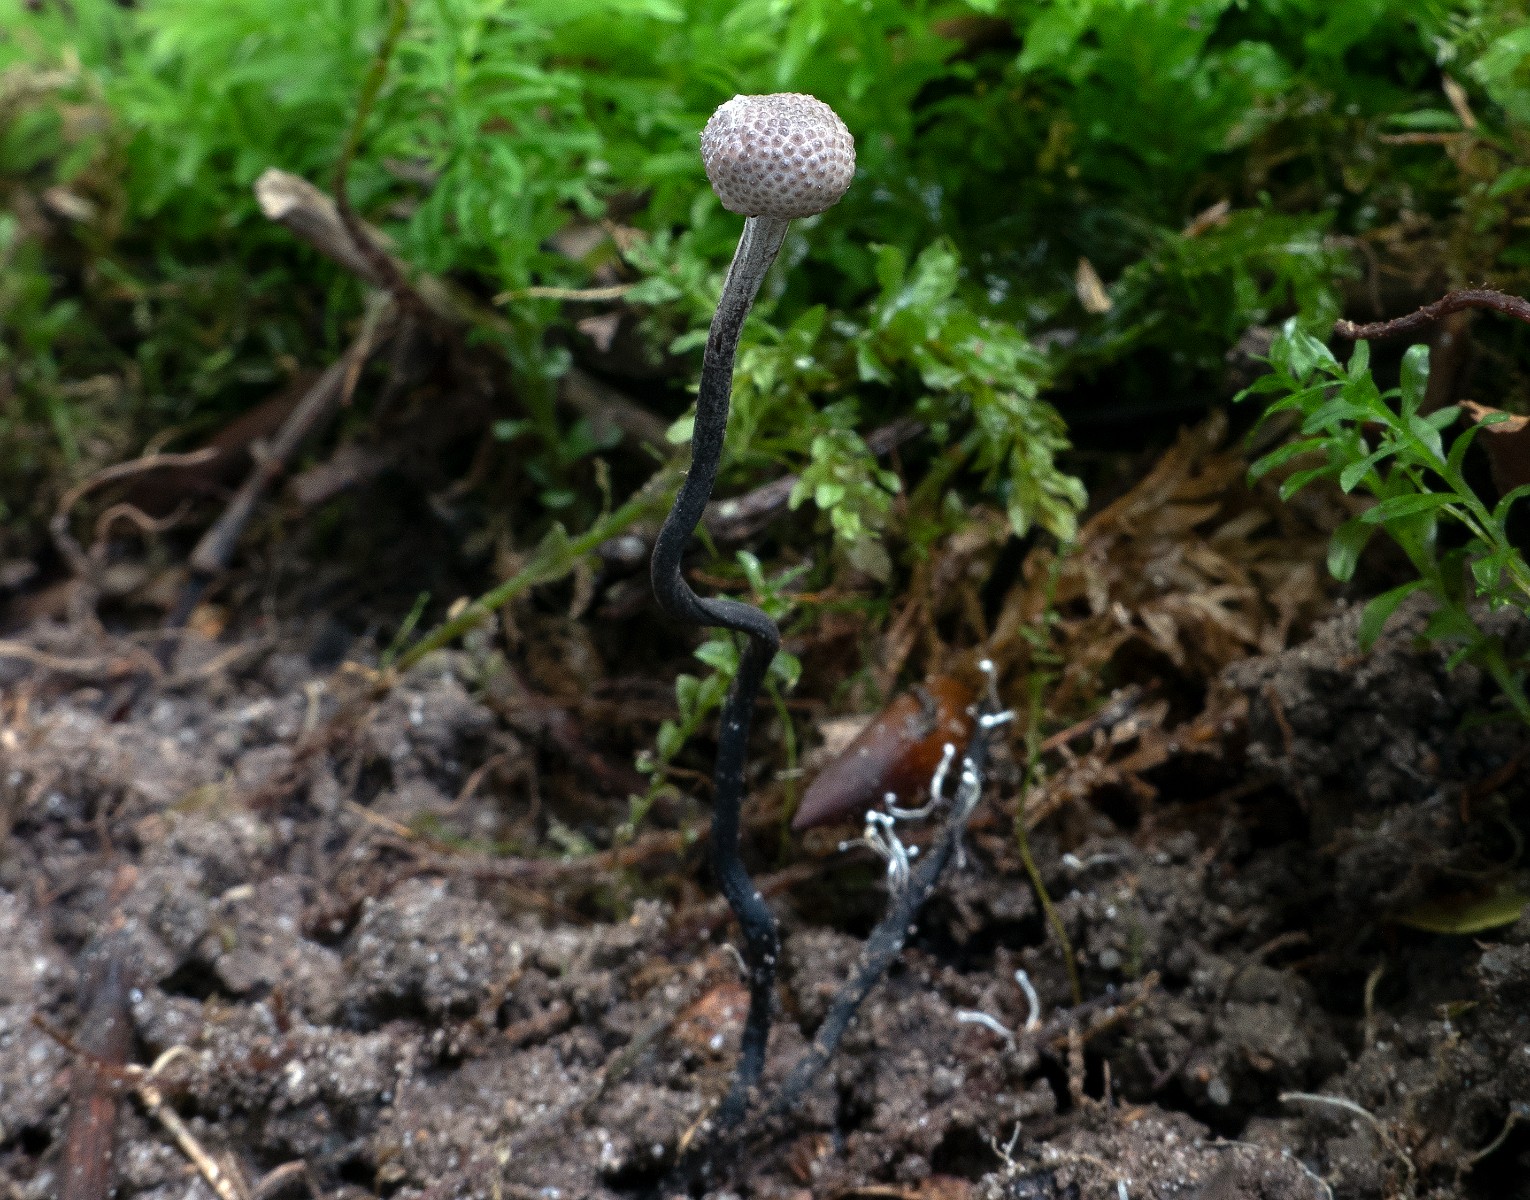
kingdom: Fungi
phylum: Ascomycota
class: Sordariomycetes
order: Hypocreales
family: Ophiocordycipitaceae
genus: Ophiocordyceps
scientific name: Ophiocordyceps entomorrhiza
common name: grå snyltekølle
